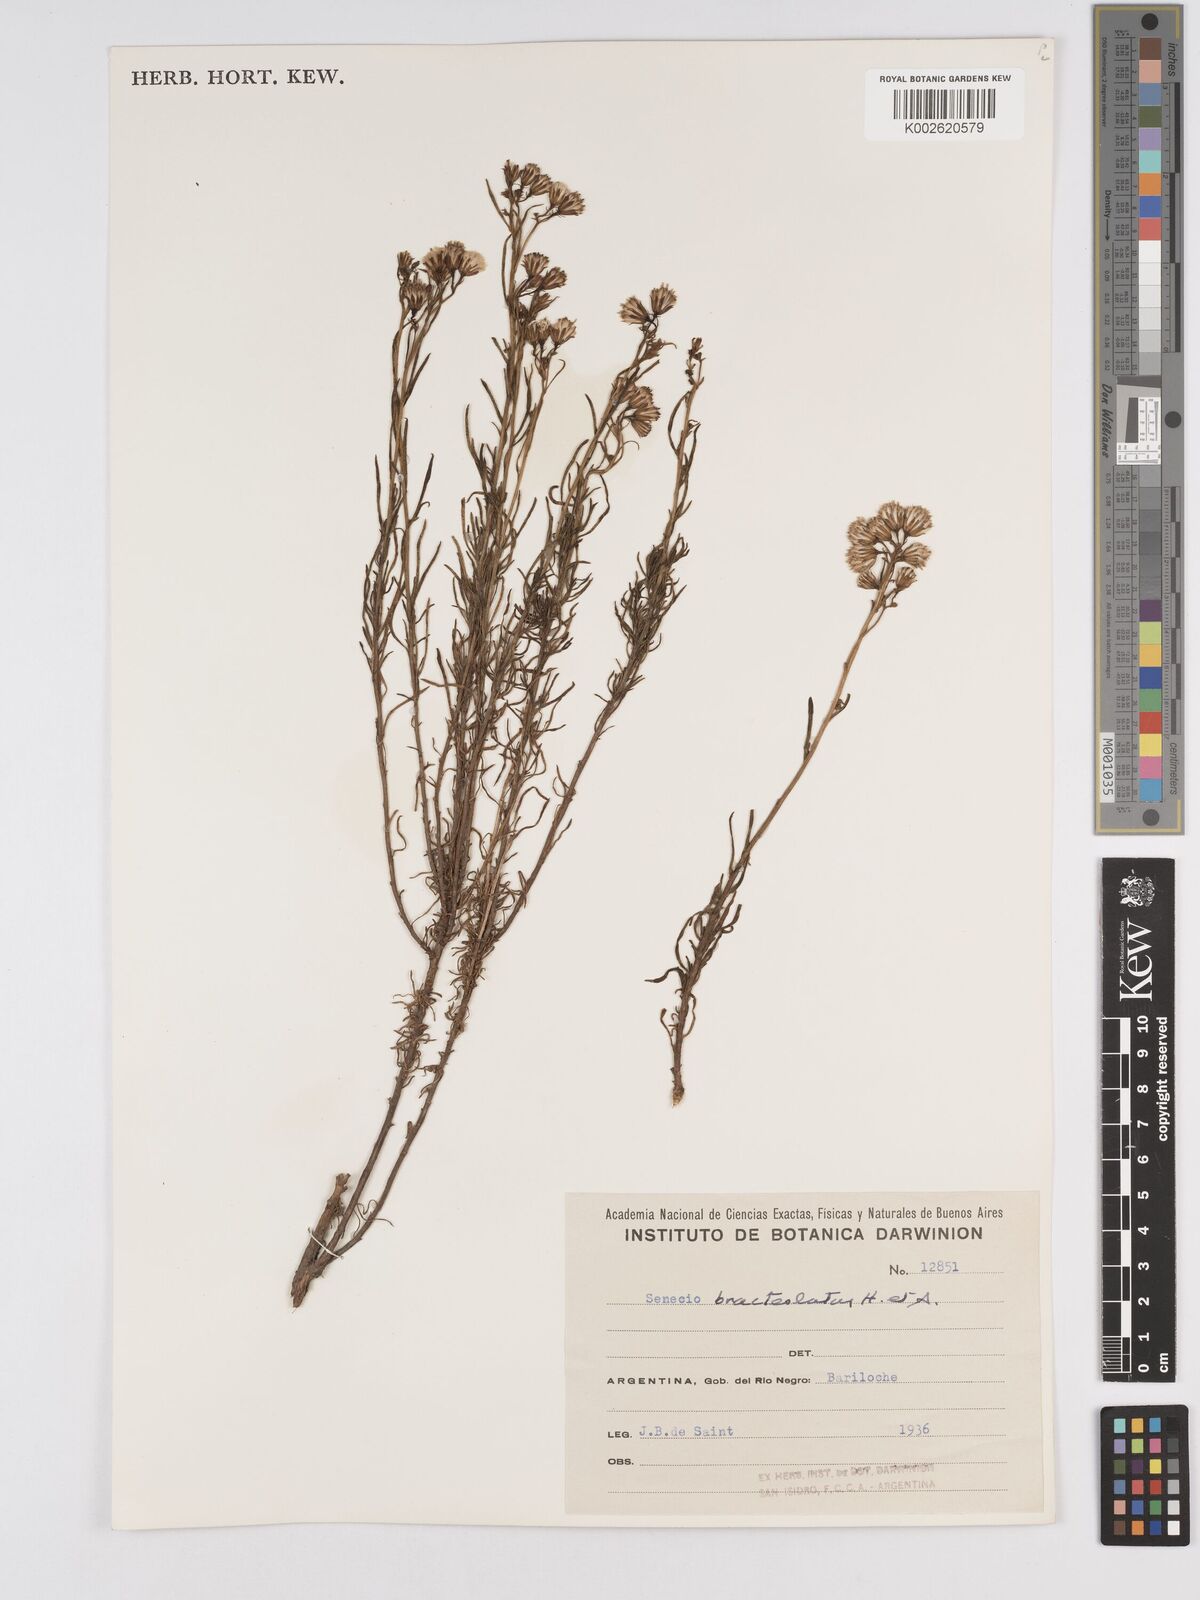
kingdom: Plantae
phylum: Tracheophyta
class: Magnoliopsida
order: Asterales
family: Asteraceae
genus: Senecio
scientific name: Senecio bracteolatus
